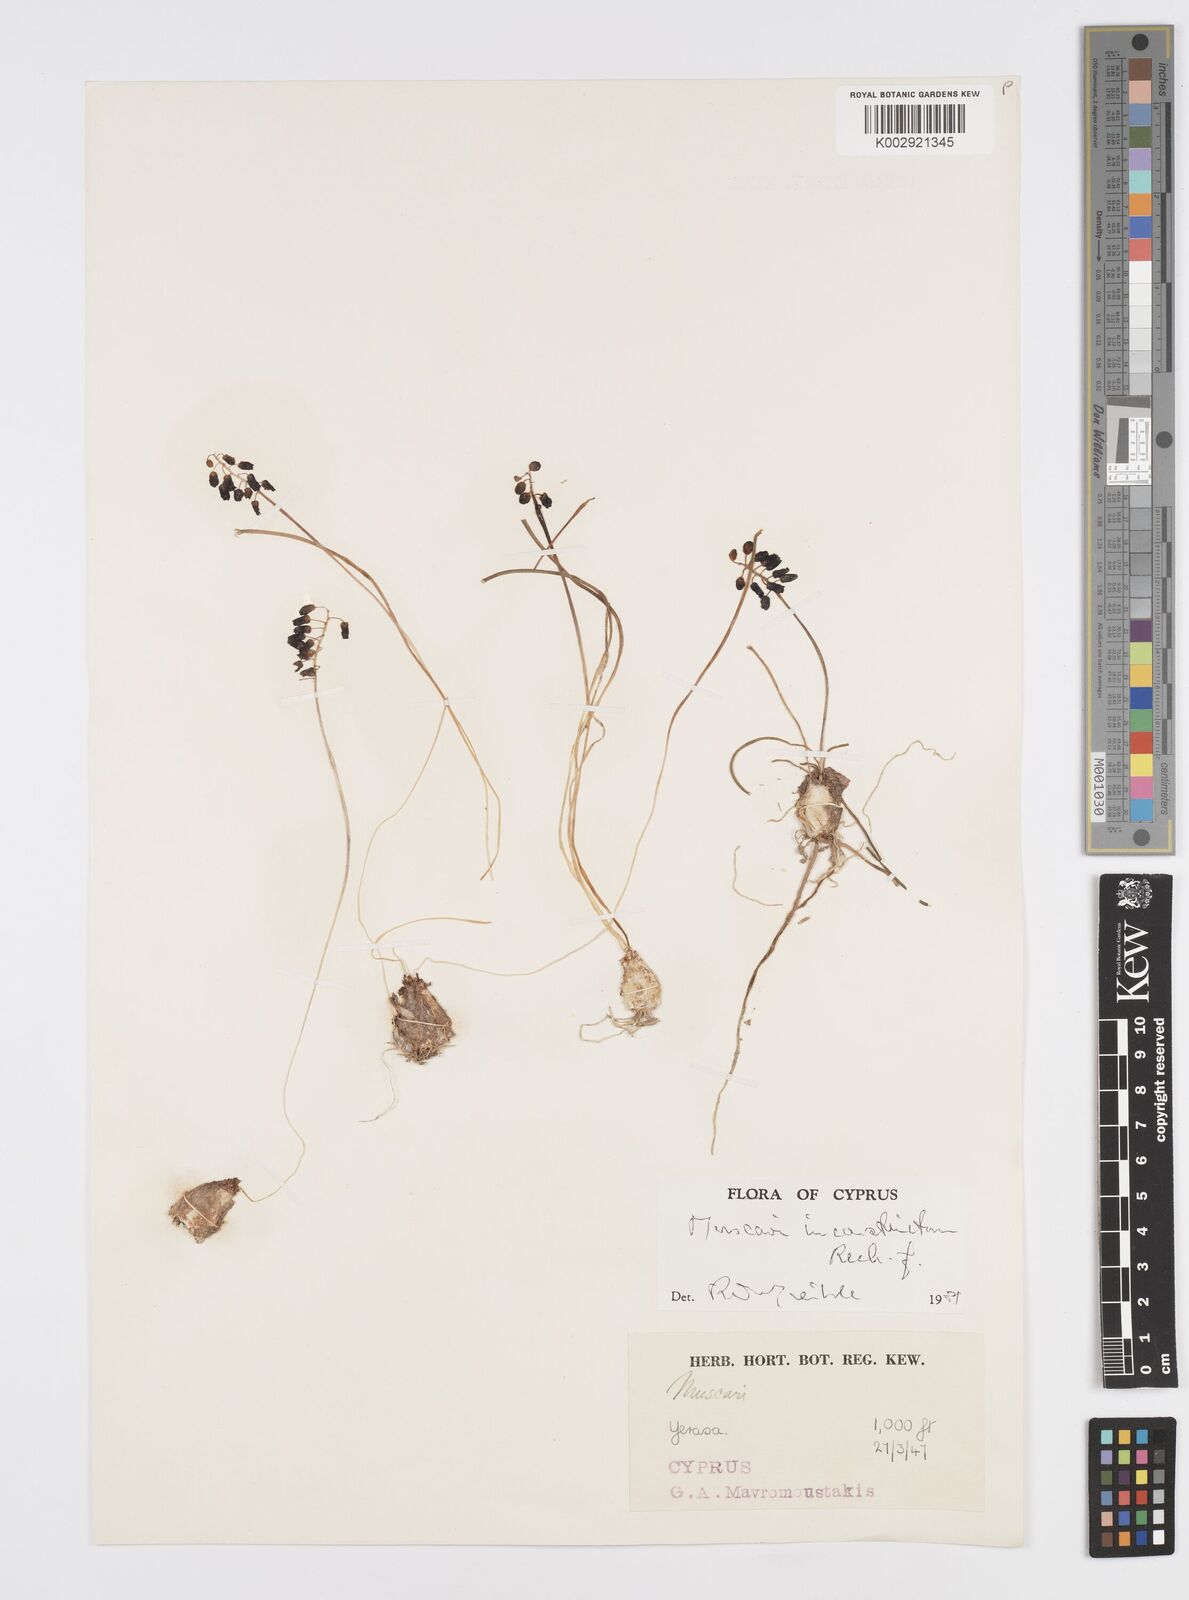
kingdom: Plantae
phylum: Tracheophyta
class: Liliopsida
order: Asparagales
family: Asparagaceae
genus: Muscari
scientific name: Muscari inconstrictum
